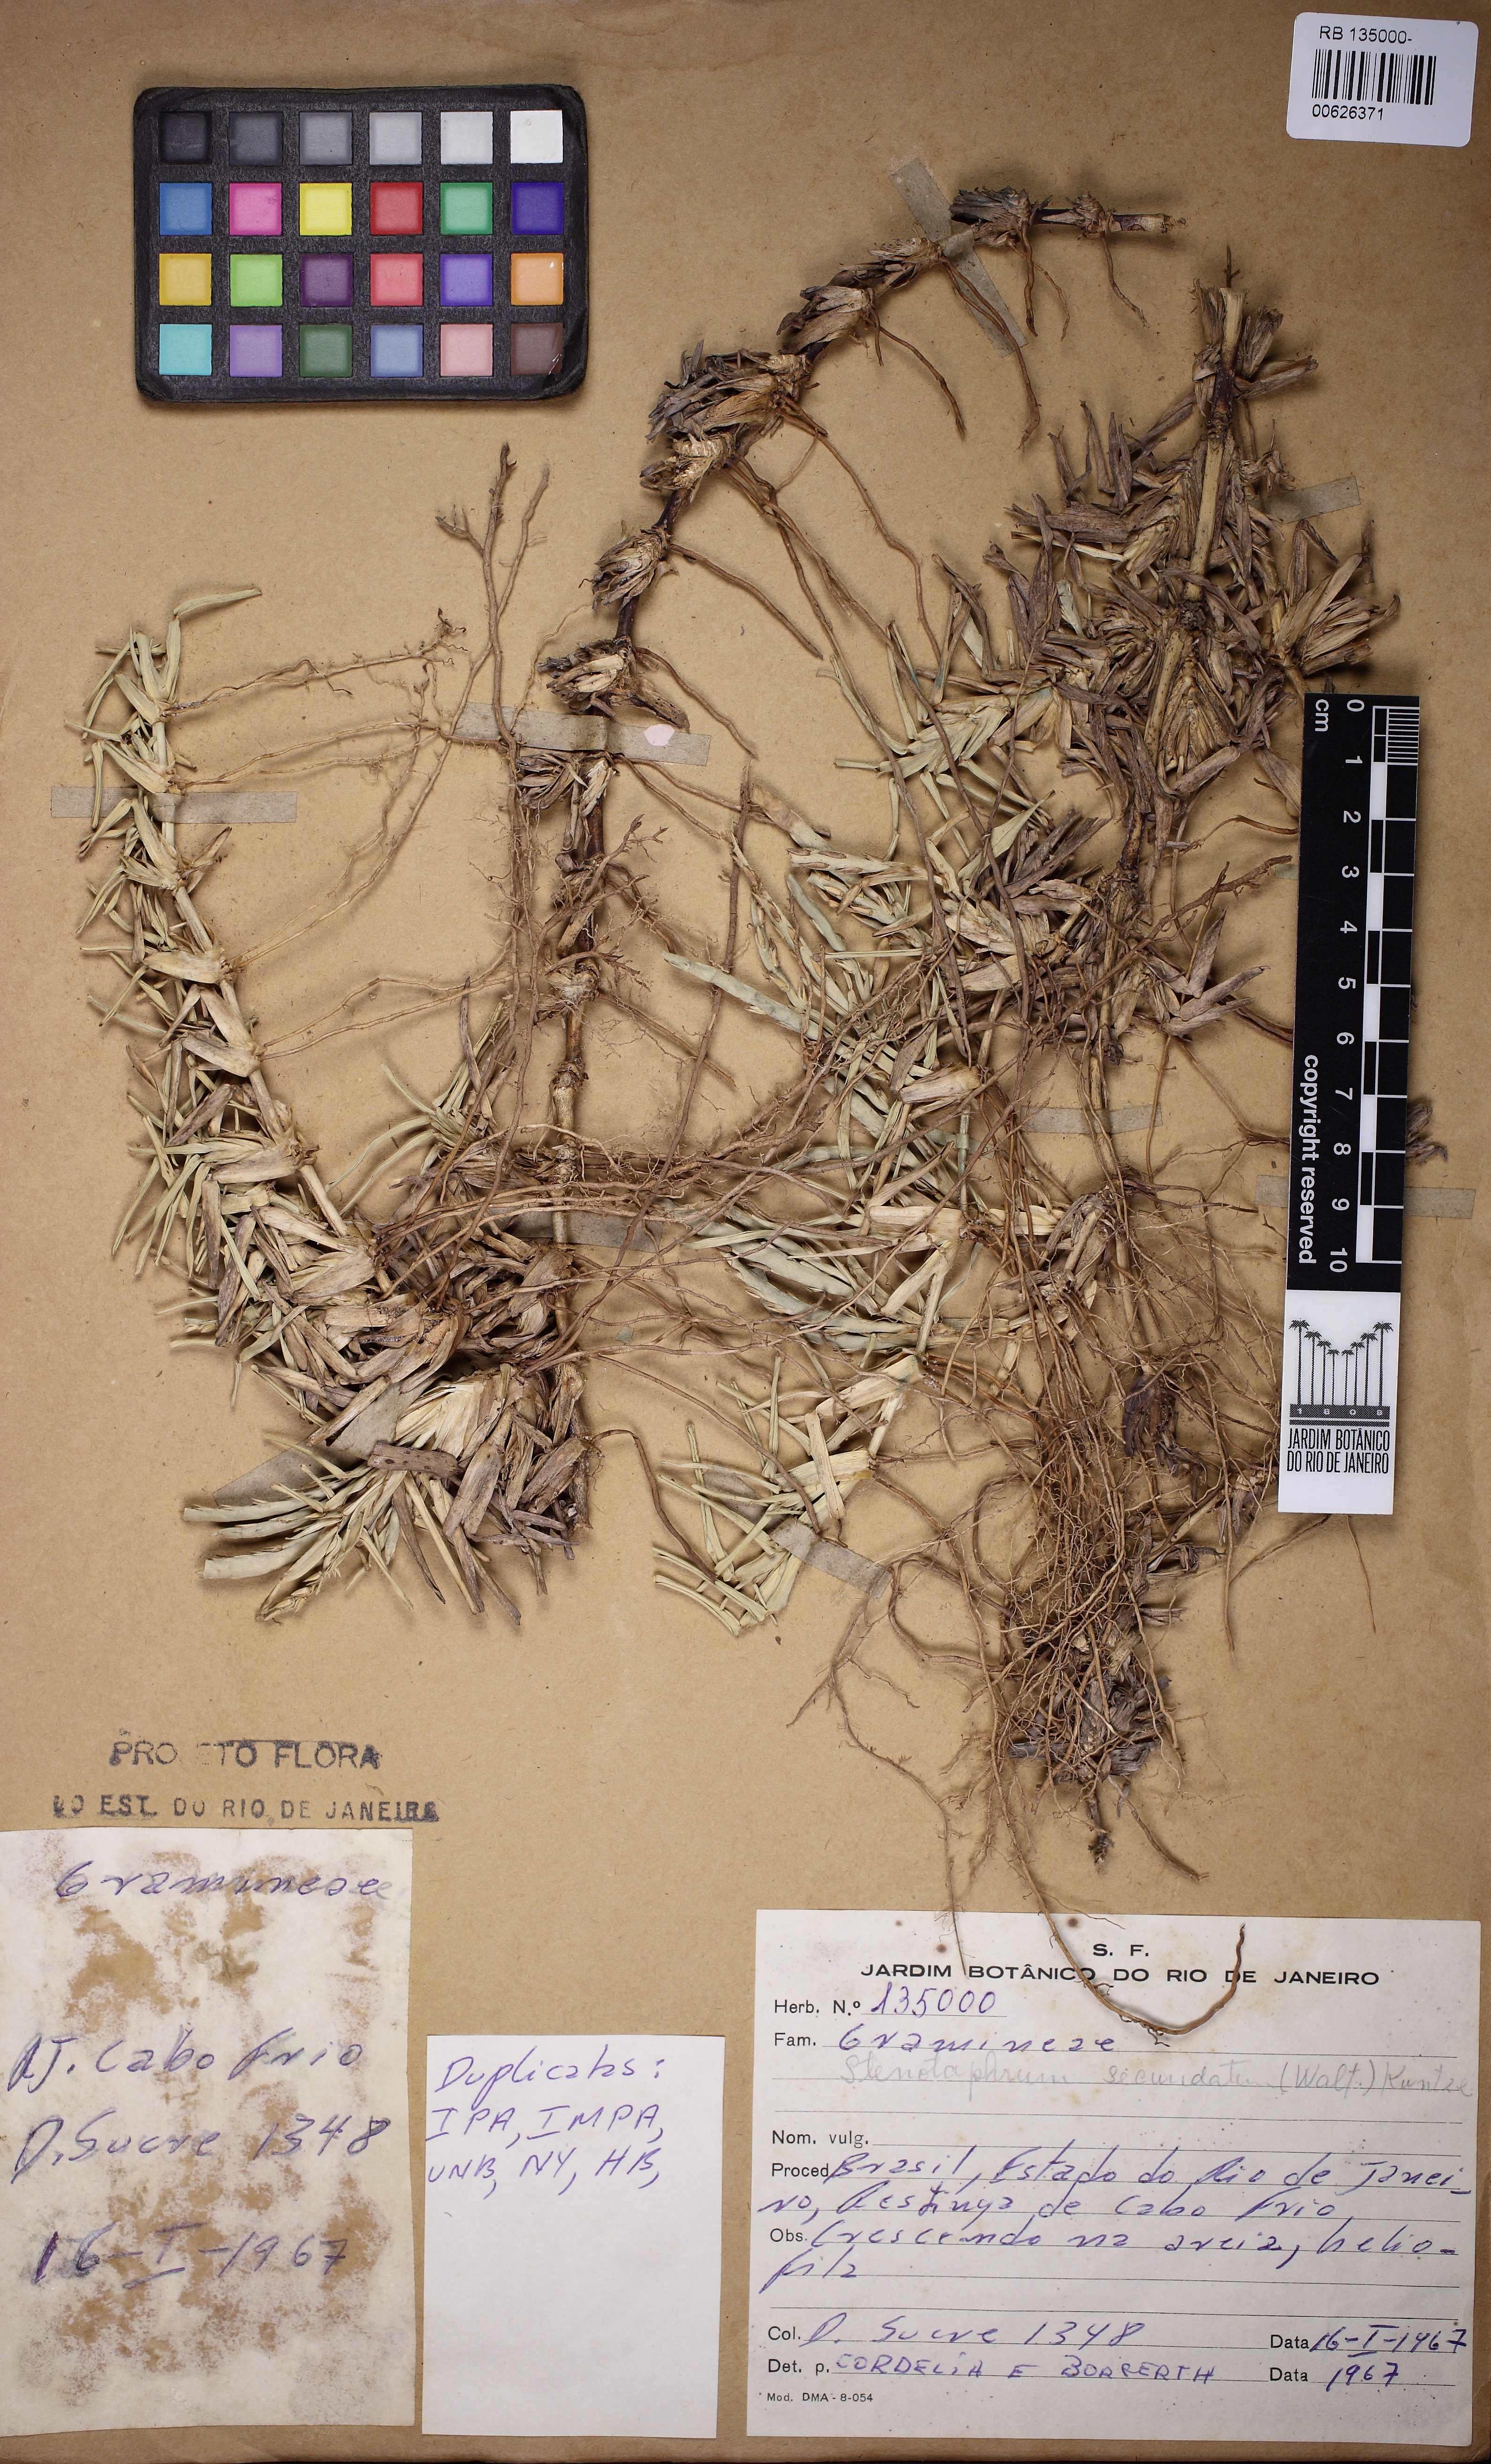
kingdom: Plantae
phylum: Tracheophyta
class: Liliopsida
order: Poales
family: Poaceae
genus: Stenotaphrum
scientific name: Stenotaphrum secundatum
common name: St. augustine grass
